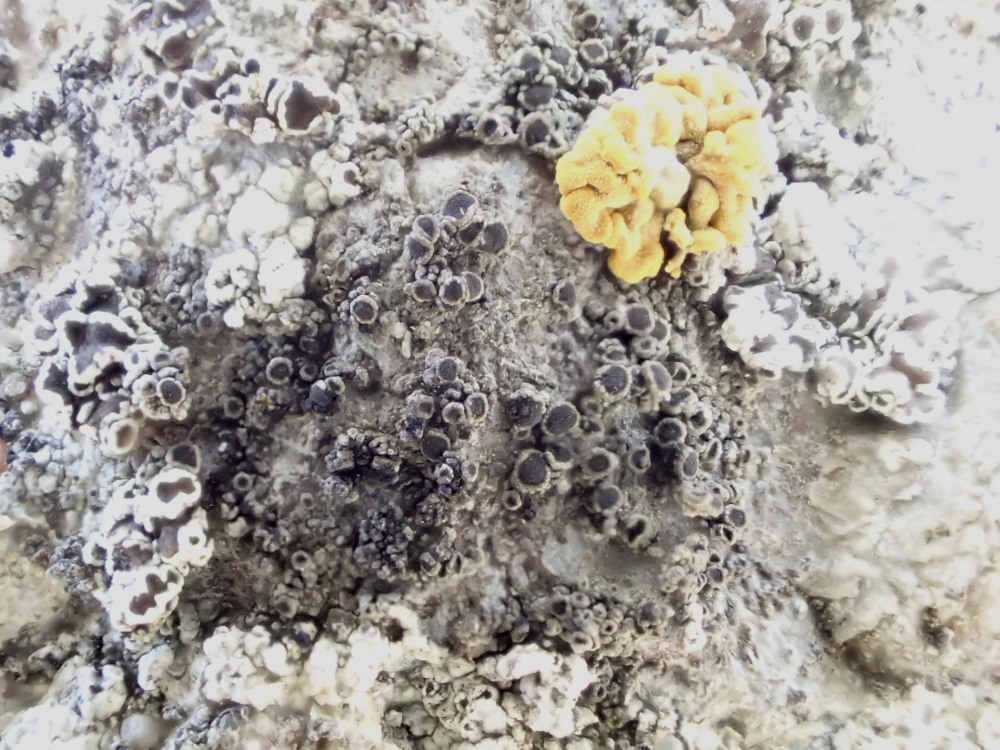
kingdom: Fungi
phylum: Ascomycota
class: Lecanoromycetes
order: Caliciales
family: Physciaceae
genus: Rinodina
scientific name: Rinodina oleae
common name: kyst-knaplav
